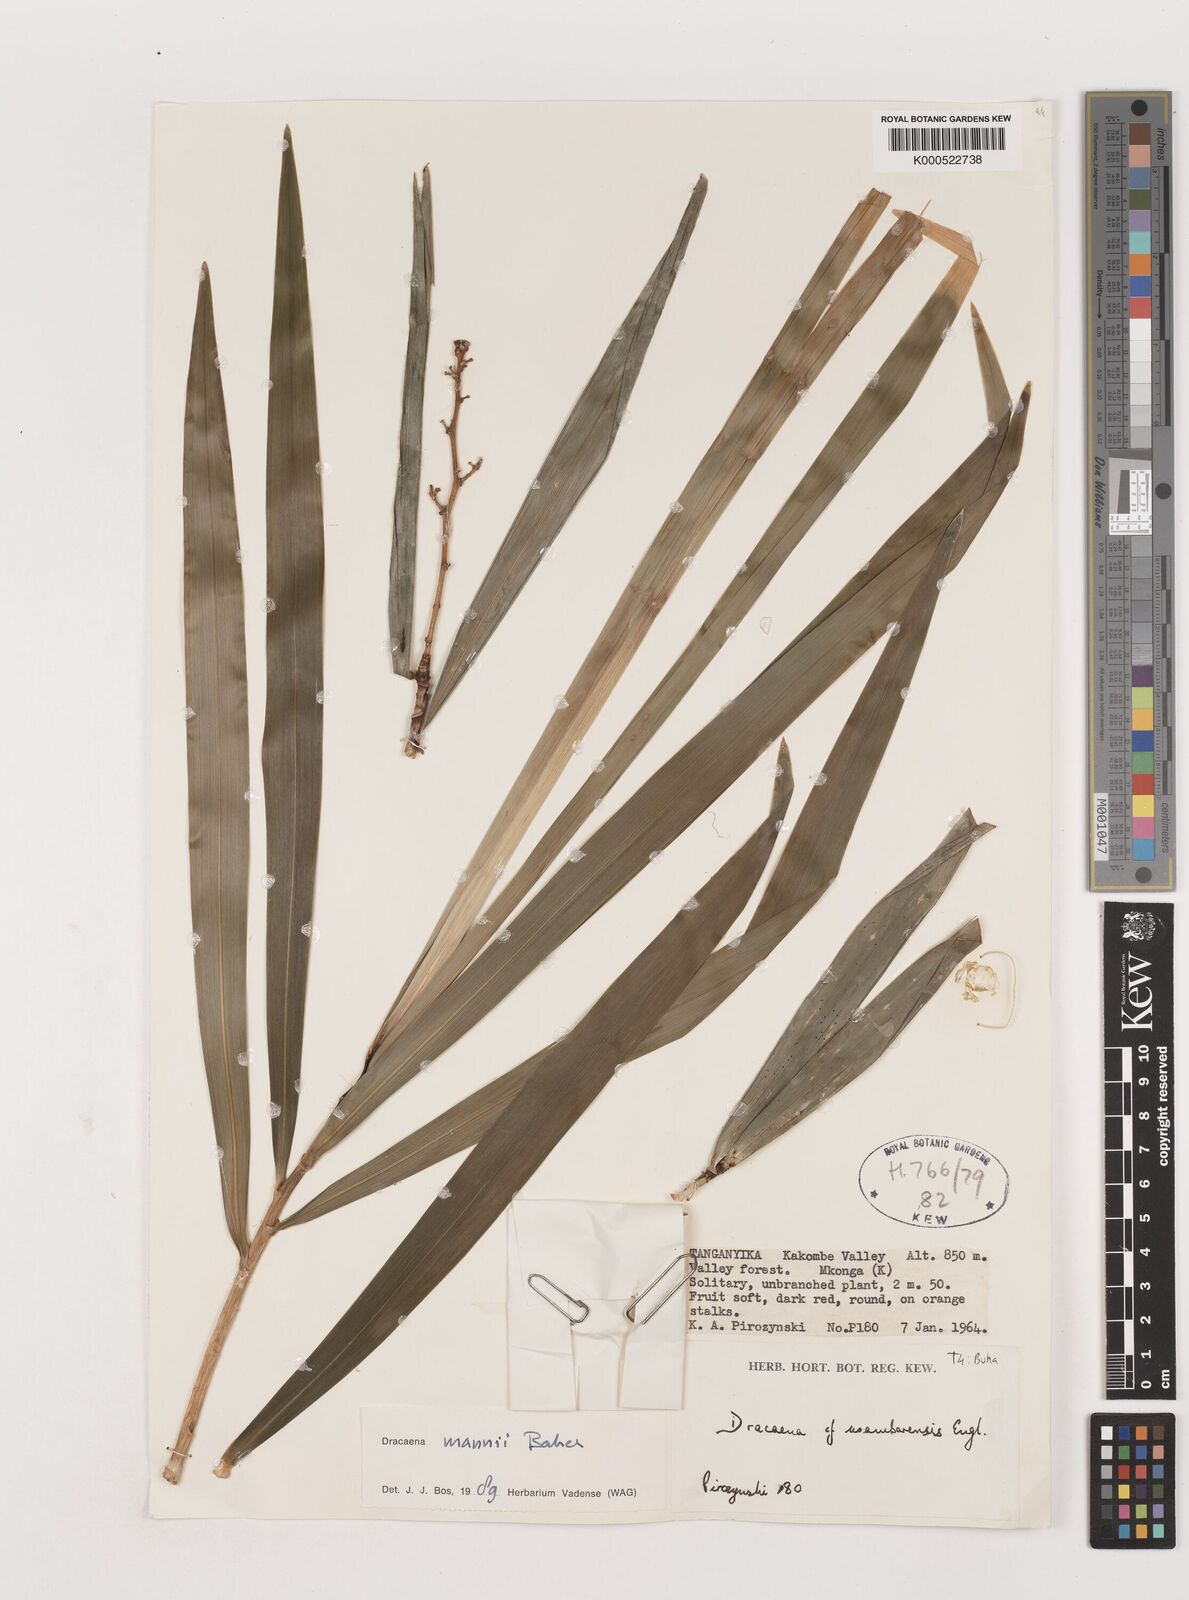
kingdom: Plantae
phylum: Tracheophyta
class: Liliopsida
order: Asparagales
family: Asparagaceae
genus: Dracaena
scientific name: Dracaena mannii
